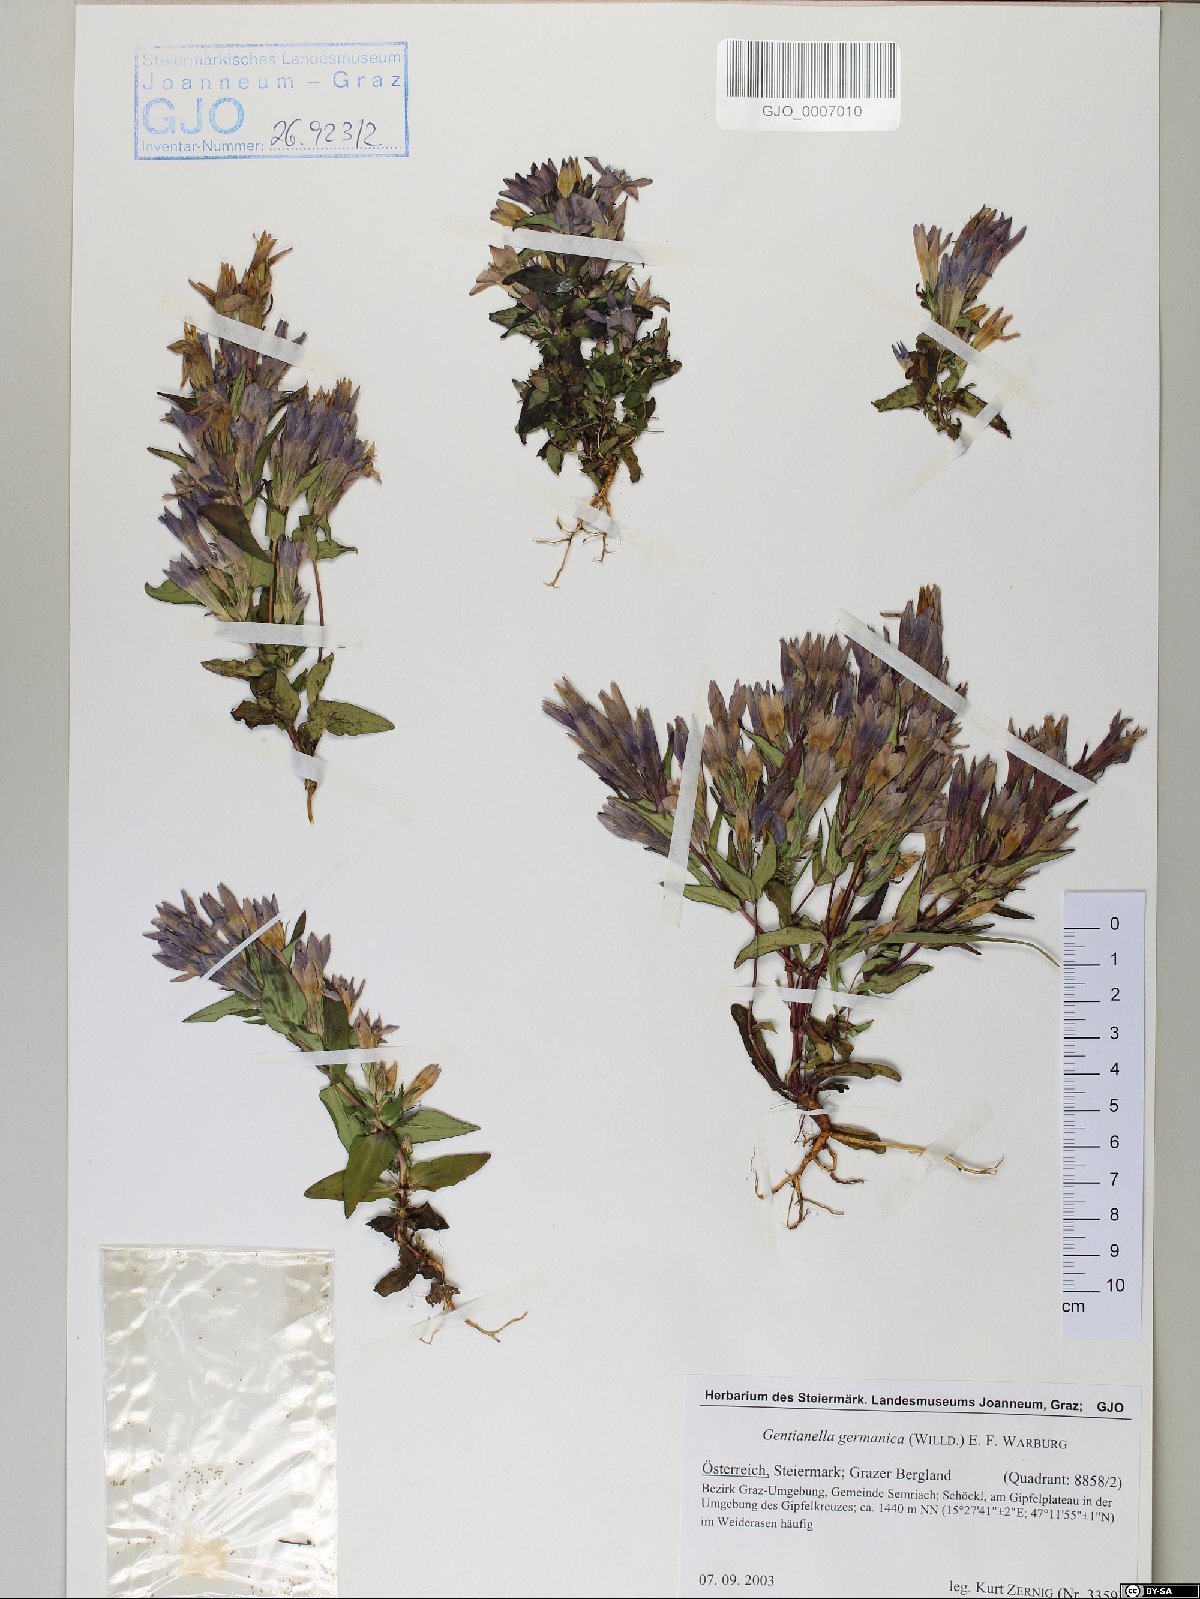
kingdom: Plantae
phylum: Tracheophyta
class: Magnoliopsida
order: Gentianales
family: Gentianaceae
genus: Gentianella
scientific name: Gentianella germanica
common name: Chiltern-gentian
